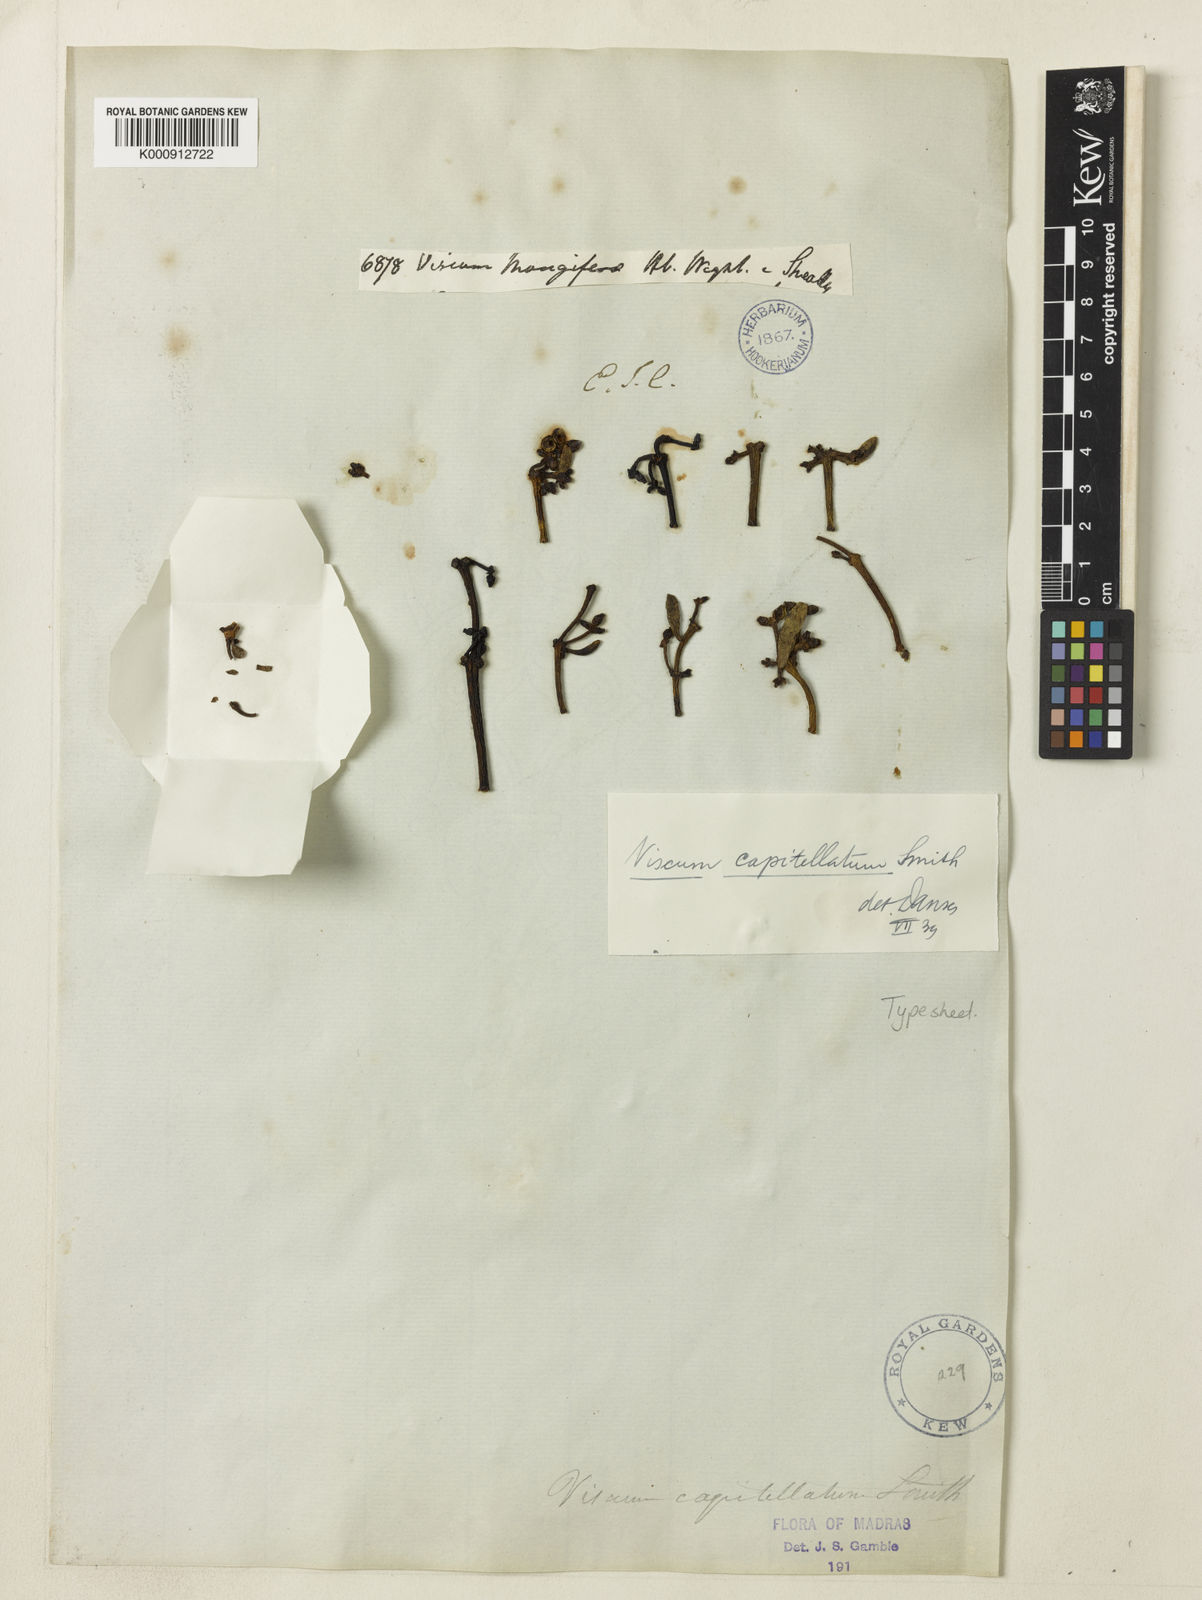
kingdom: Plantae
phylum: Tracheophyta
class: Magnoliopsida
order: Santalales
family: Viscaceae
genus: Viscum
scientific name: Viscum capitellatum
